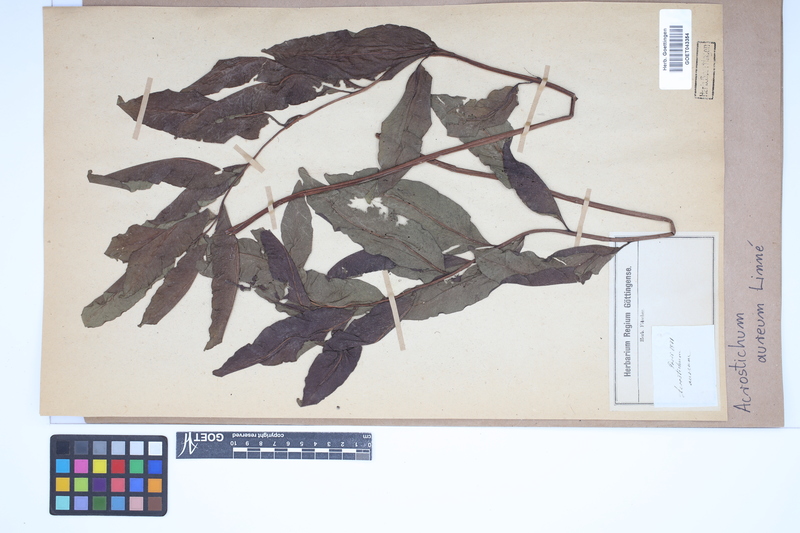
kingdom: Plantae
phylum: Tracheophyta
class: Polypodiopsida
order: Polypodiales
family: Pteridaceae
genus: Acrostichum
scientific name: Acrostichum aureum
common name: Leather fern
